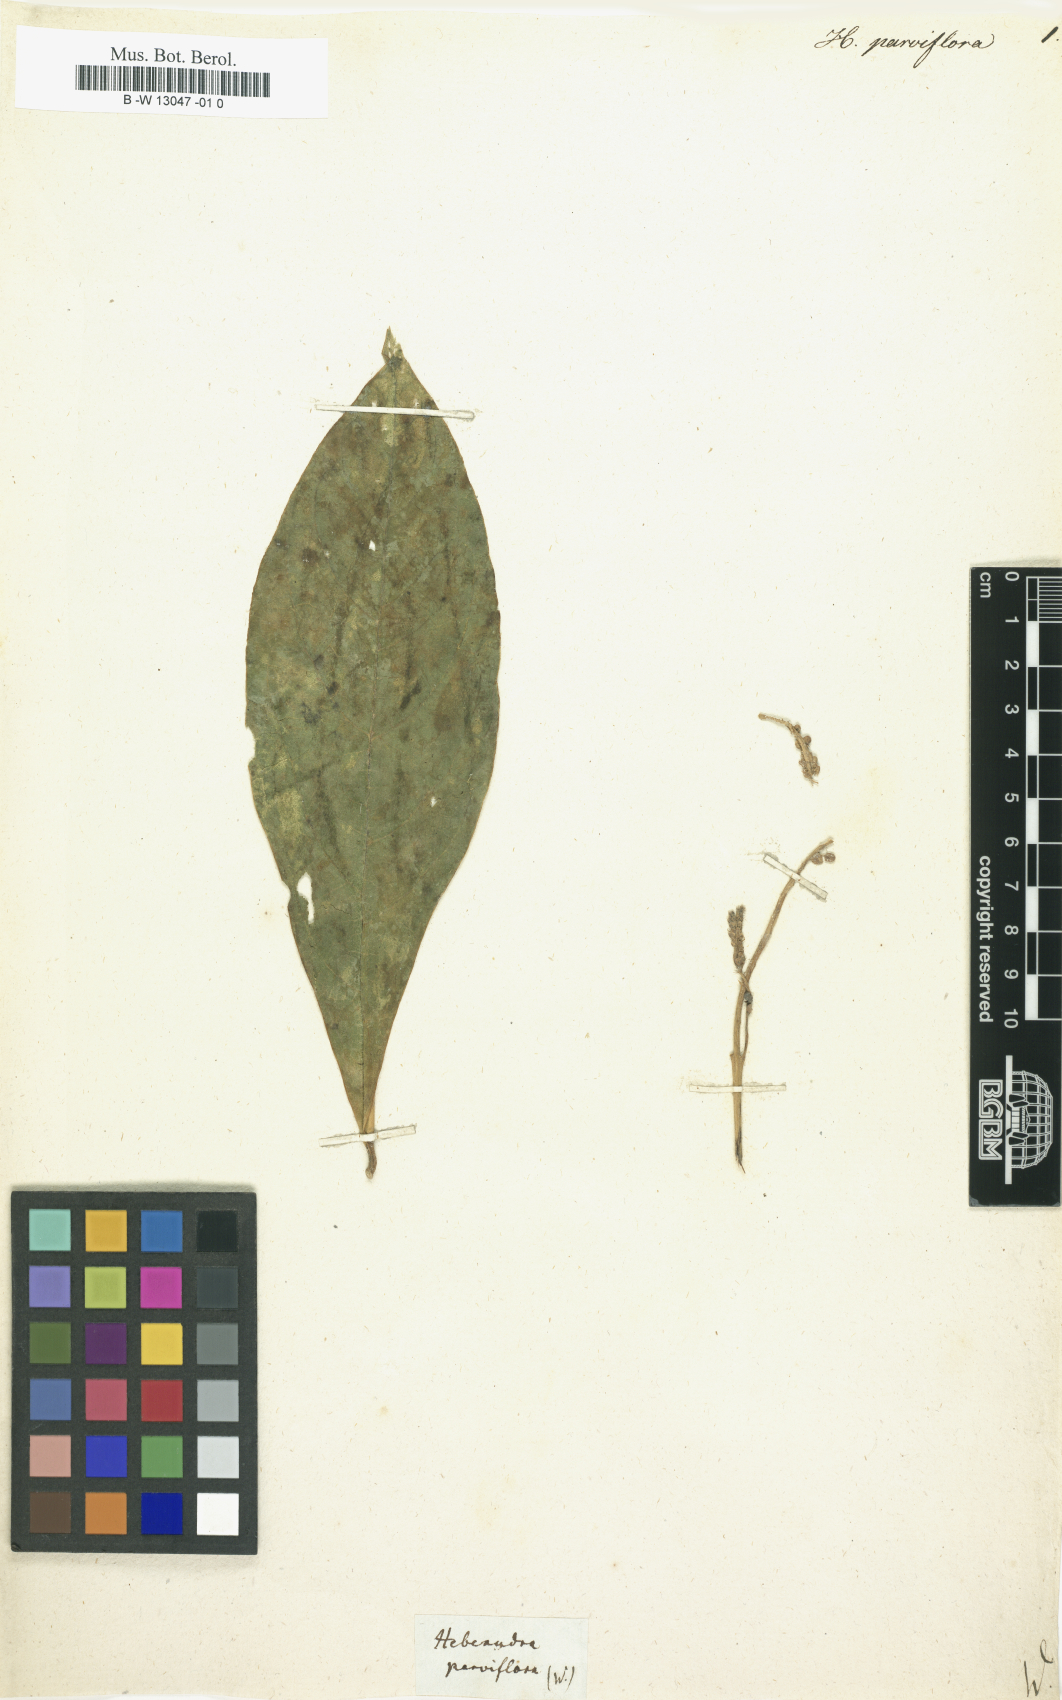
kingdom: Plantae
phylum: Tracheophyta
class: Magnoliopsida
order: Fabales
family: Polygalaceae
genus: Monnina
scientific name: Monnina parviflora
